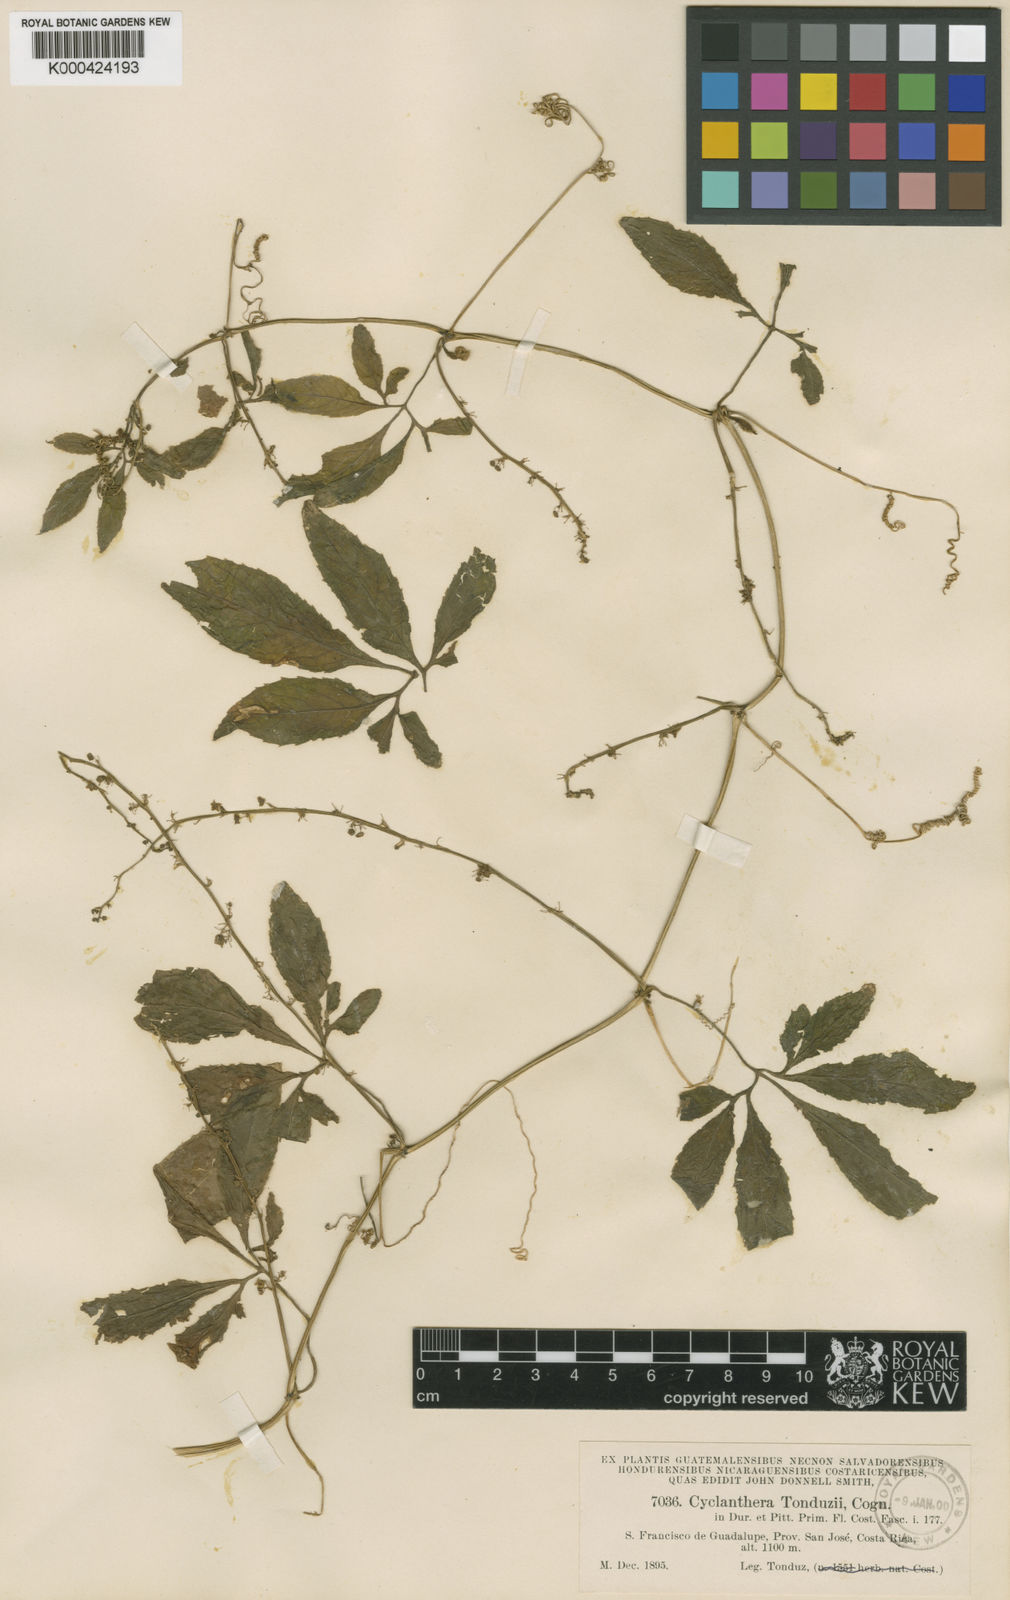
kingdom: Plantae
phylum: Tracheophyta
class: Magnoliopsida
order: Cucurbitales
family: Cucurbitaceae
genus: Cyclanthera
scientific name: Cyclanthera multifoliola
